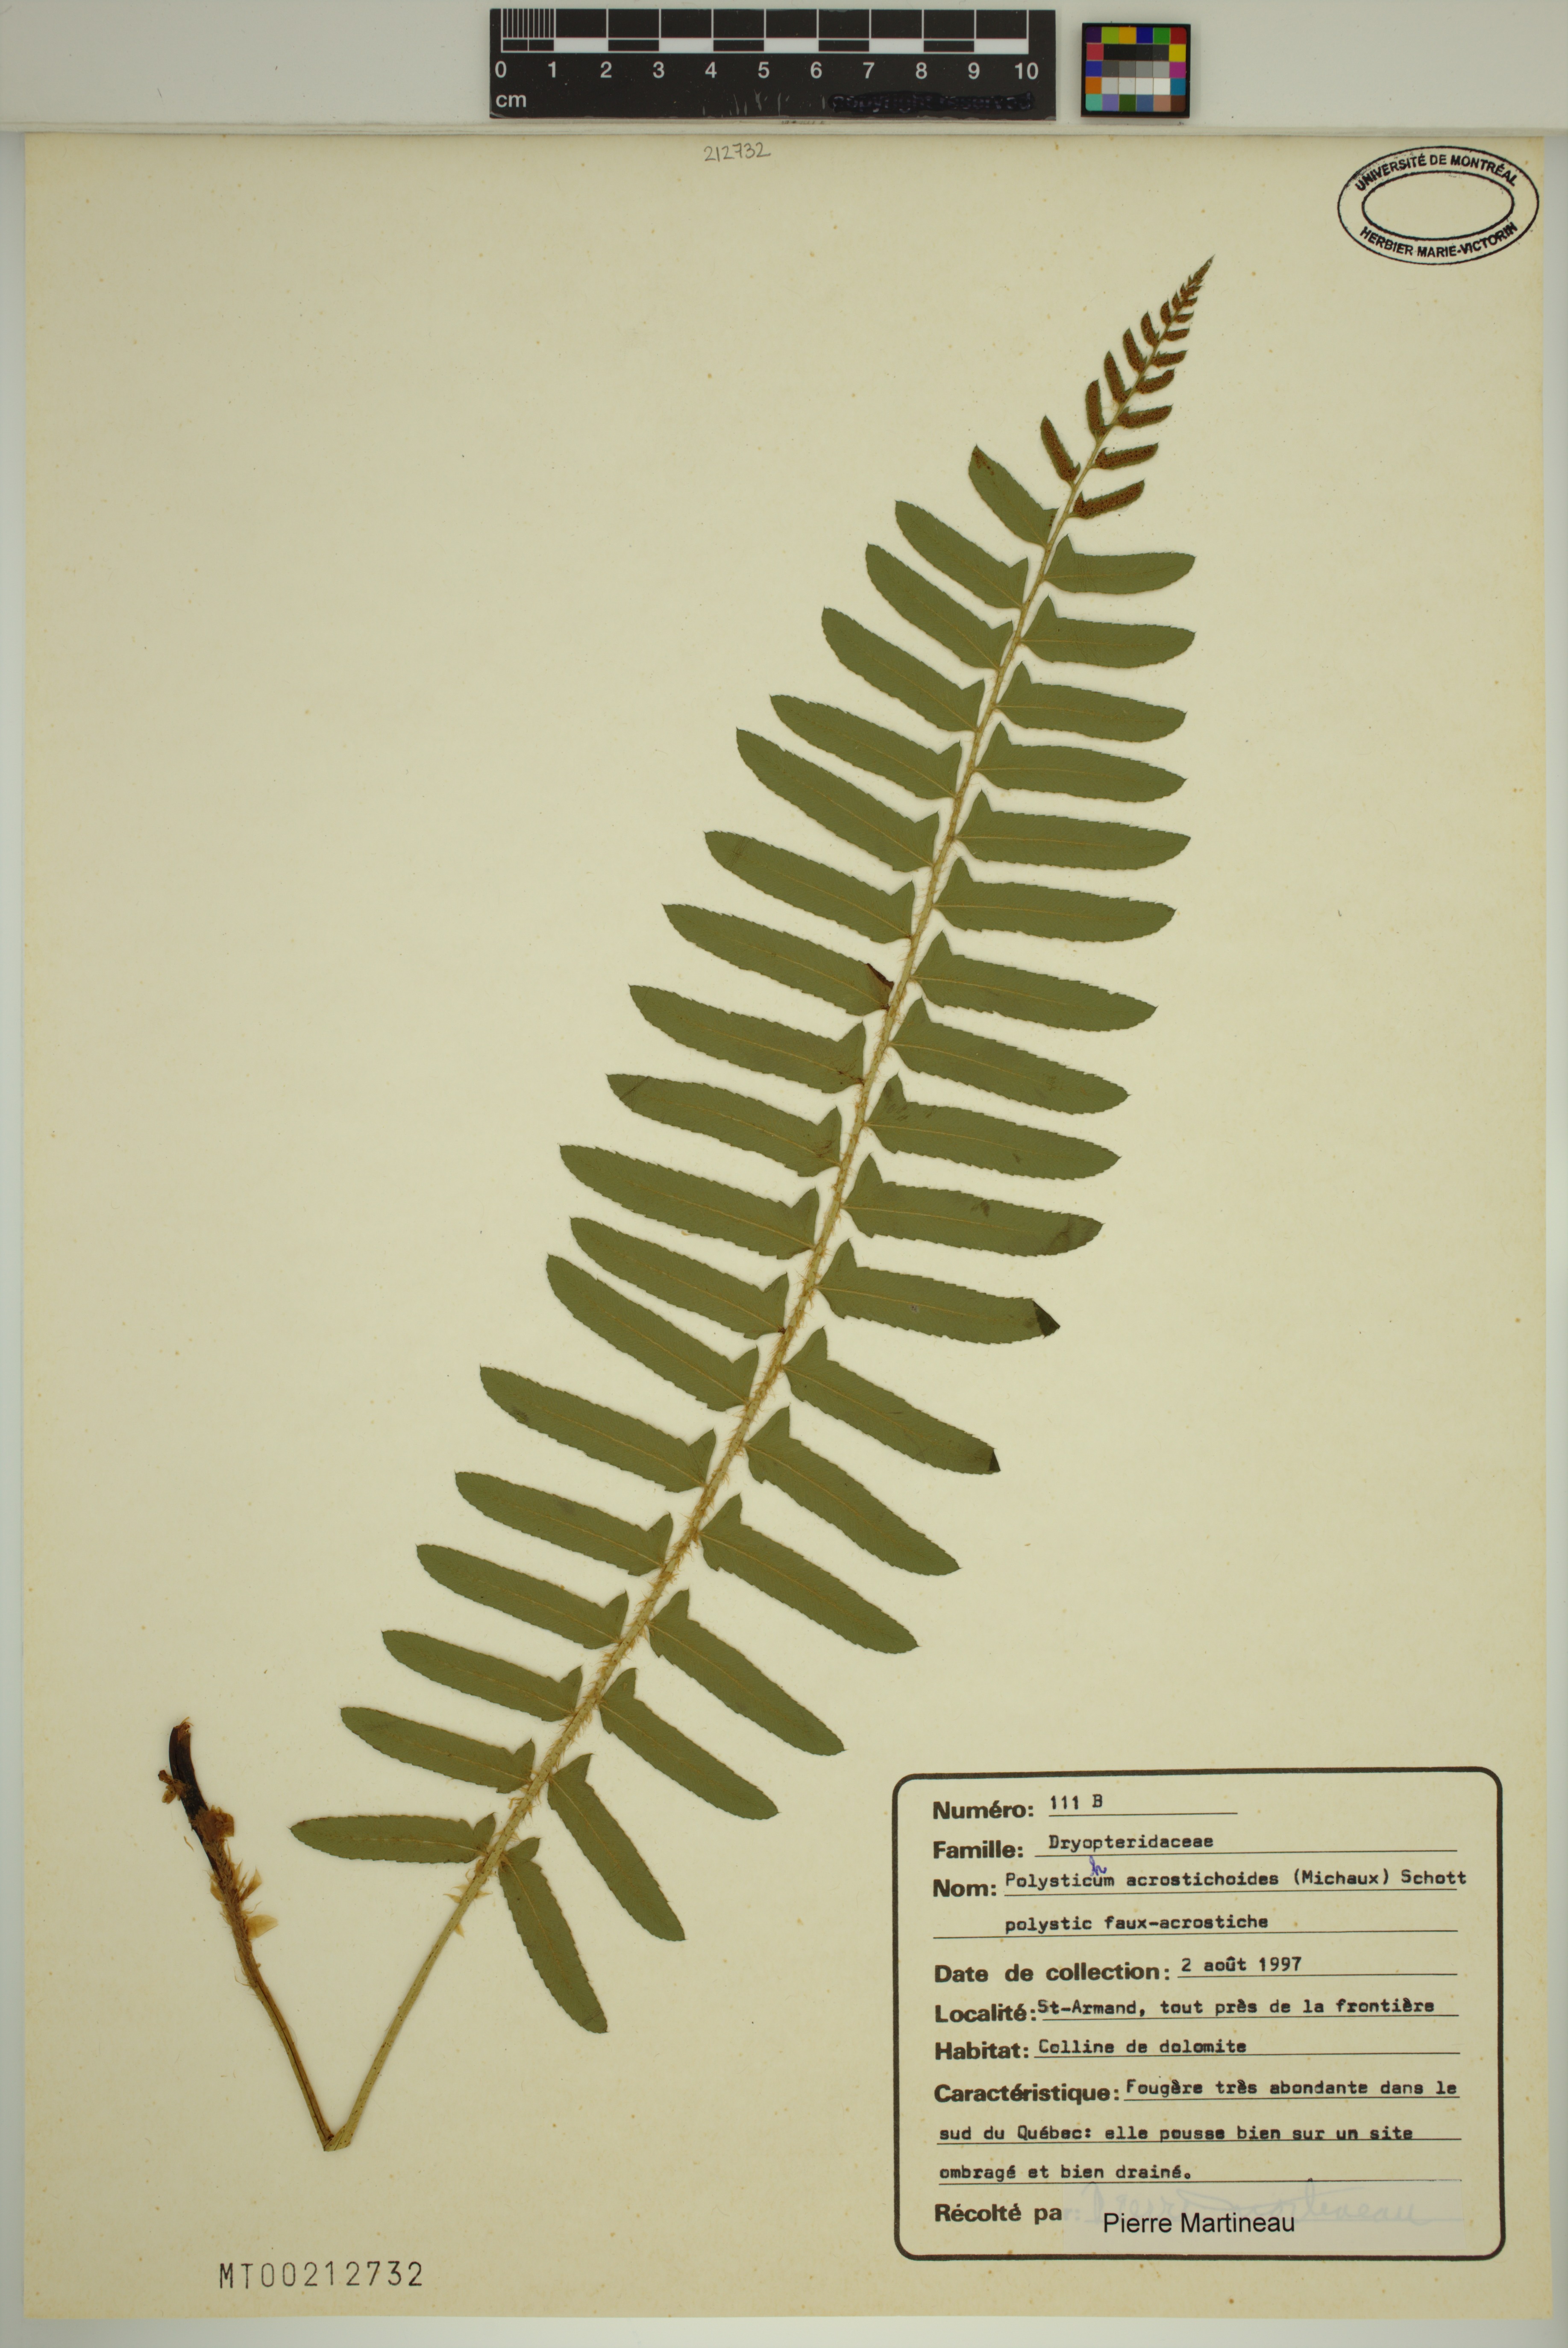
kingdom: Plantae
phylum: Tracheophyta
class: Polypodiopsida
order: Polypodiales
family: Dryopteridaceae
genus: Polystichum
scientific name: Polystichum acrostichoides
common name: Christmas fern
